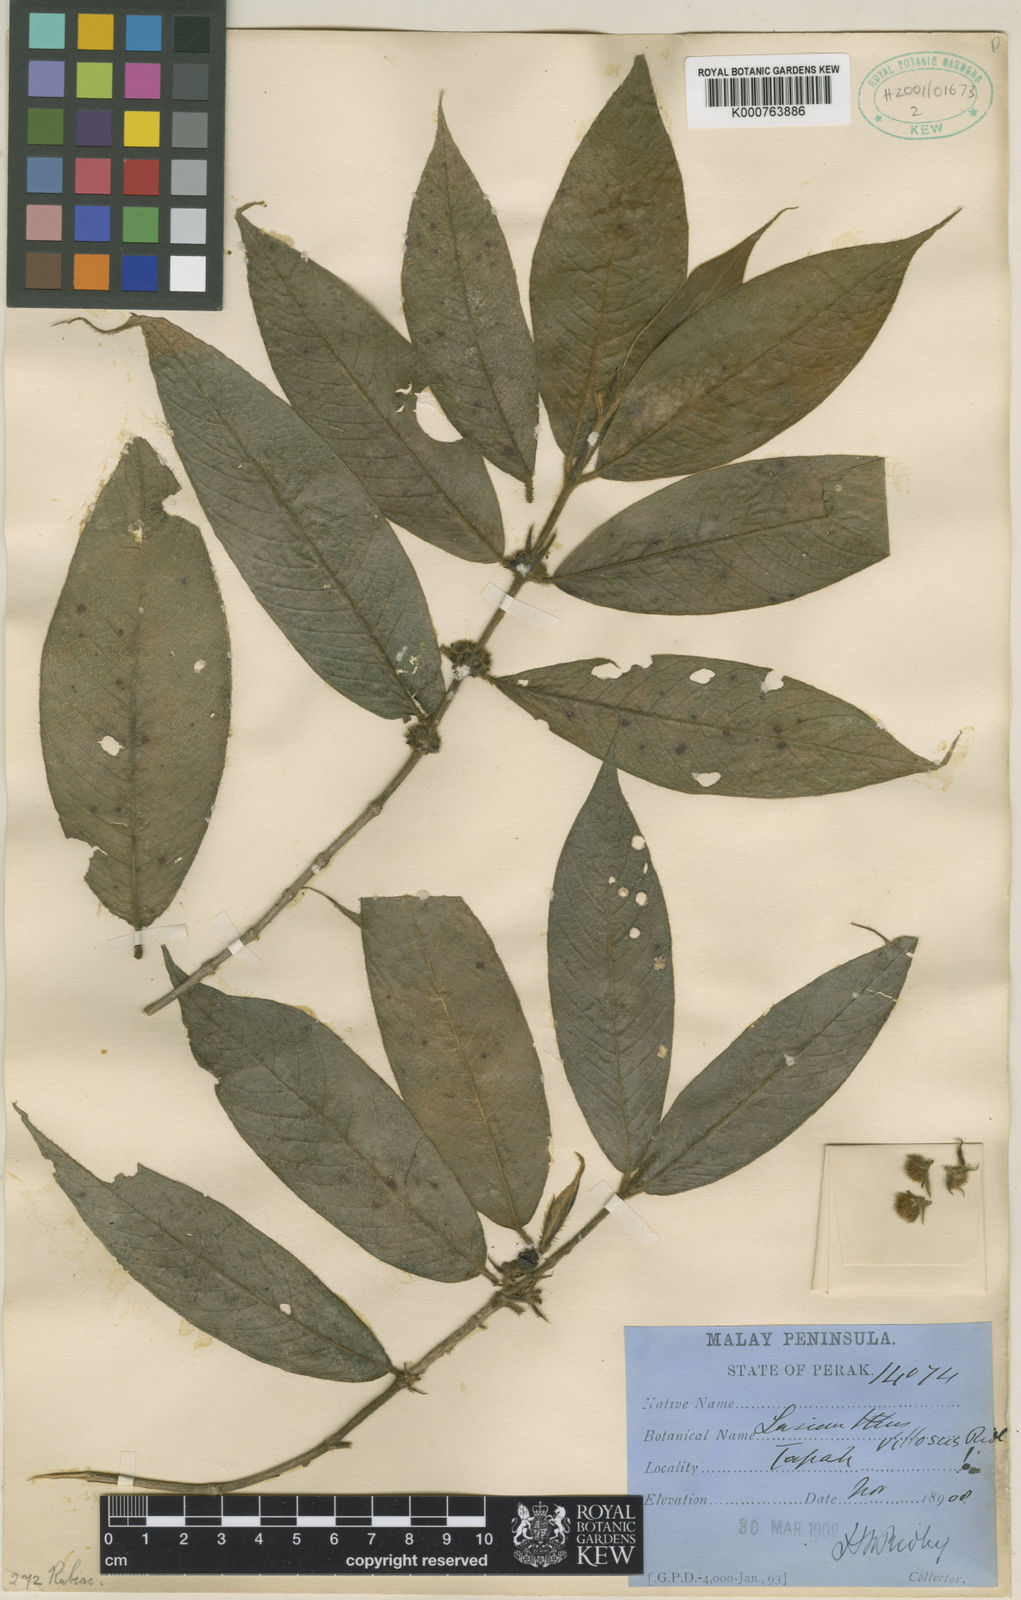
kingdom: Plantae
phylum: Tracheophyta
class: Magnoliopsida
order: Gentianales
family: Rubiaceae
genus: Lasianthus
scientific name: Lasianthus villosus
